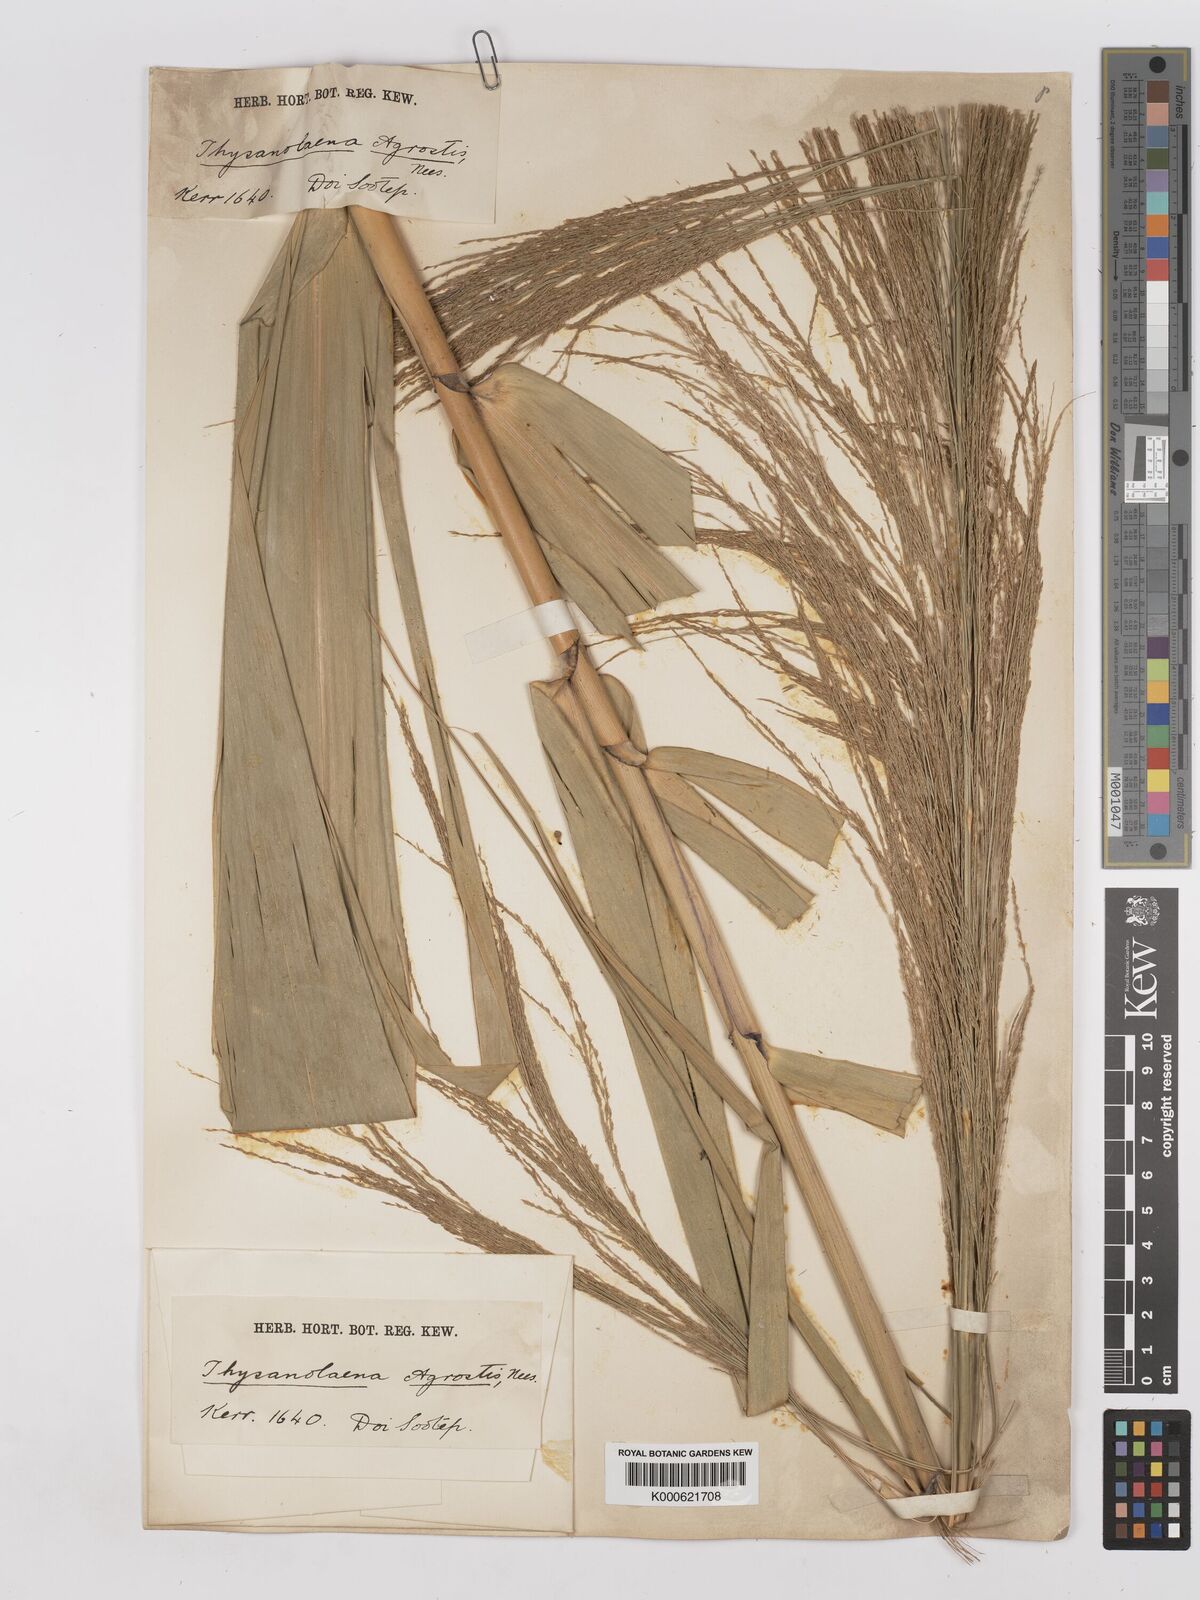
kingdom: Plantae
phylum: Tracheophyta
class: Liliopsida
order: Poales
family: Poaceae
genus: Thysanolaena
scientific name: Thysanolaena latifolia
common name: Tiger grass
